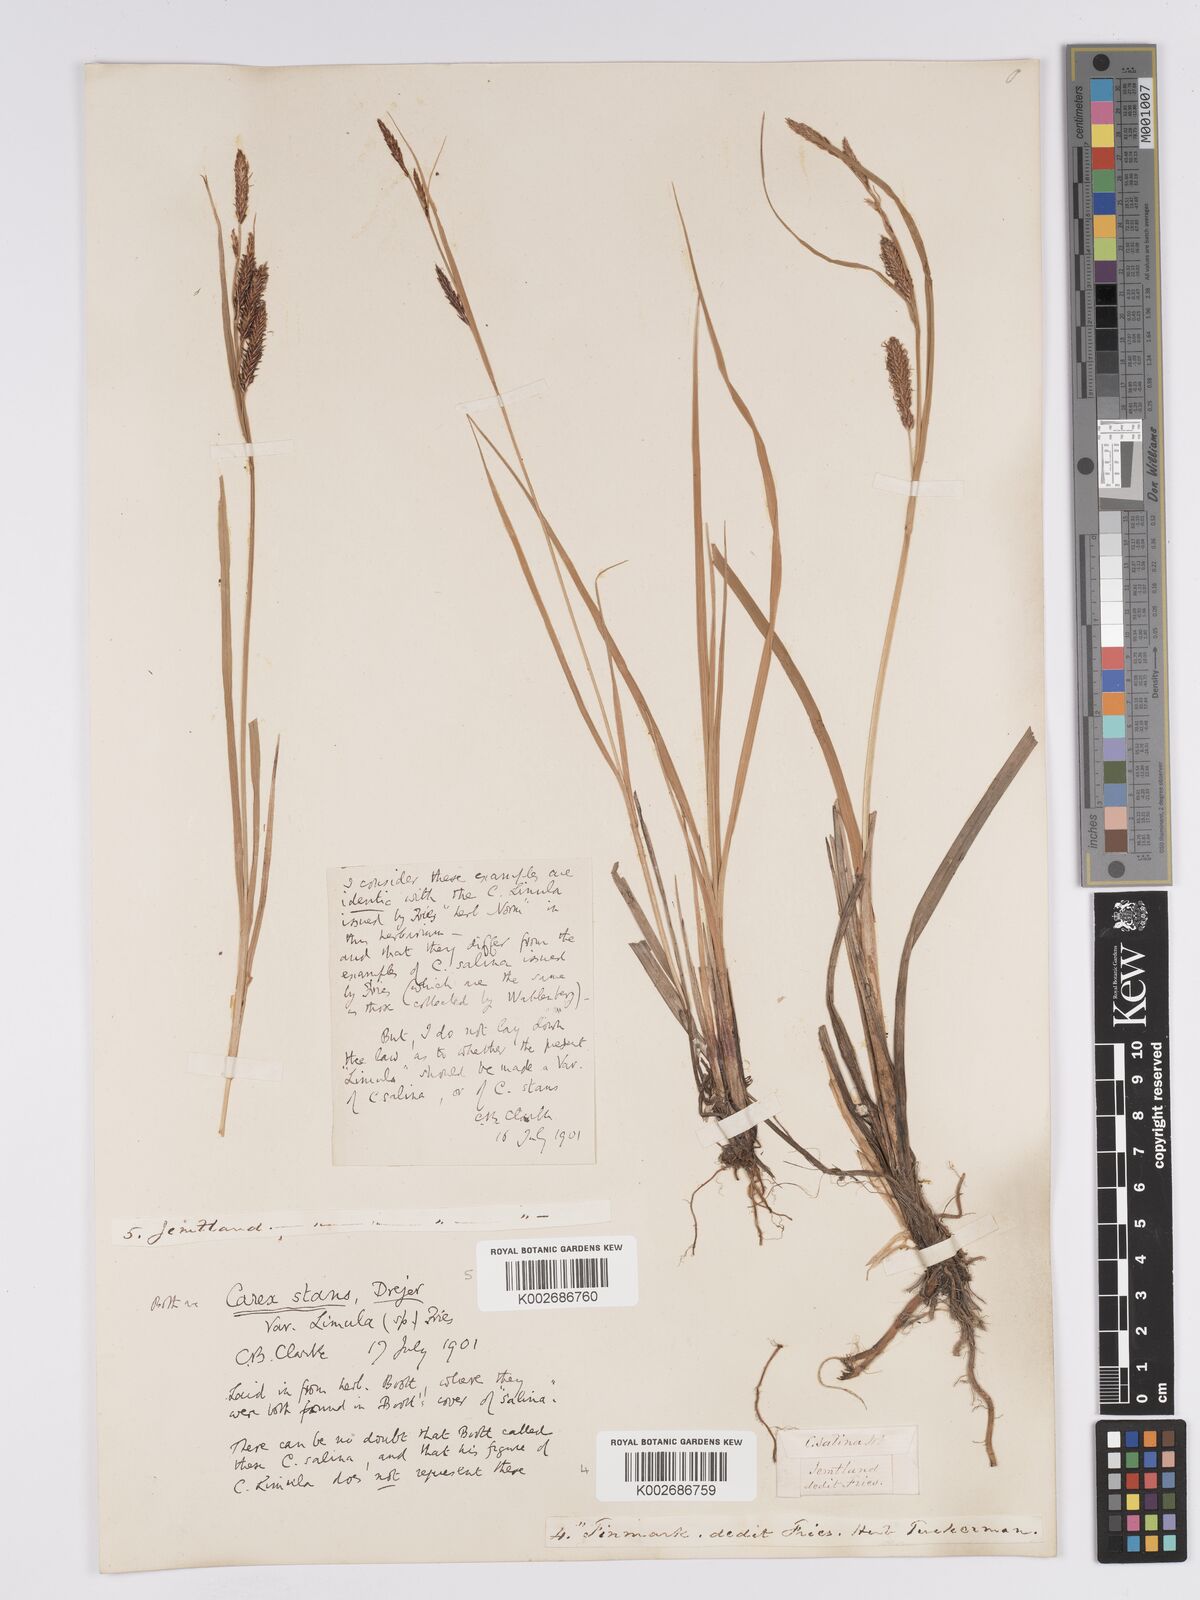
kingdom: Plantae
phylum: Tracheophyta
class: Liliopsida
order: Poales
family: Cyperaceae
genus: Carex
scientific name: Carex aquatilis
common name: Water sedge
